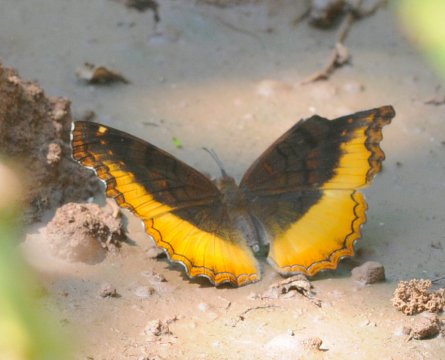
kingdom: Animalia
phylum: Arthropoda
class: Insecta
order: Lepidoptera
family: Nymphalidae
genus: Eurytela
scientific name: Eurytela dryope
